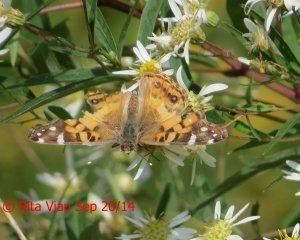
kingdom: Animalia
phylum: Arthropoda
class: Insecta
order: Lepidoptera
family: Nymphalidae
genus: Vanessa
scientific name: Vanessa virginiensis
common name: American Lady
